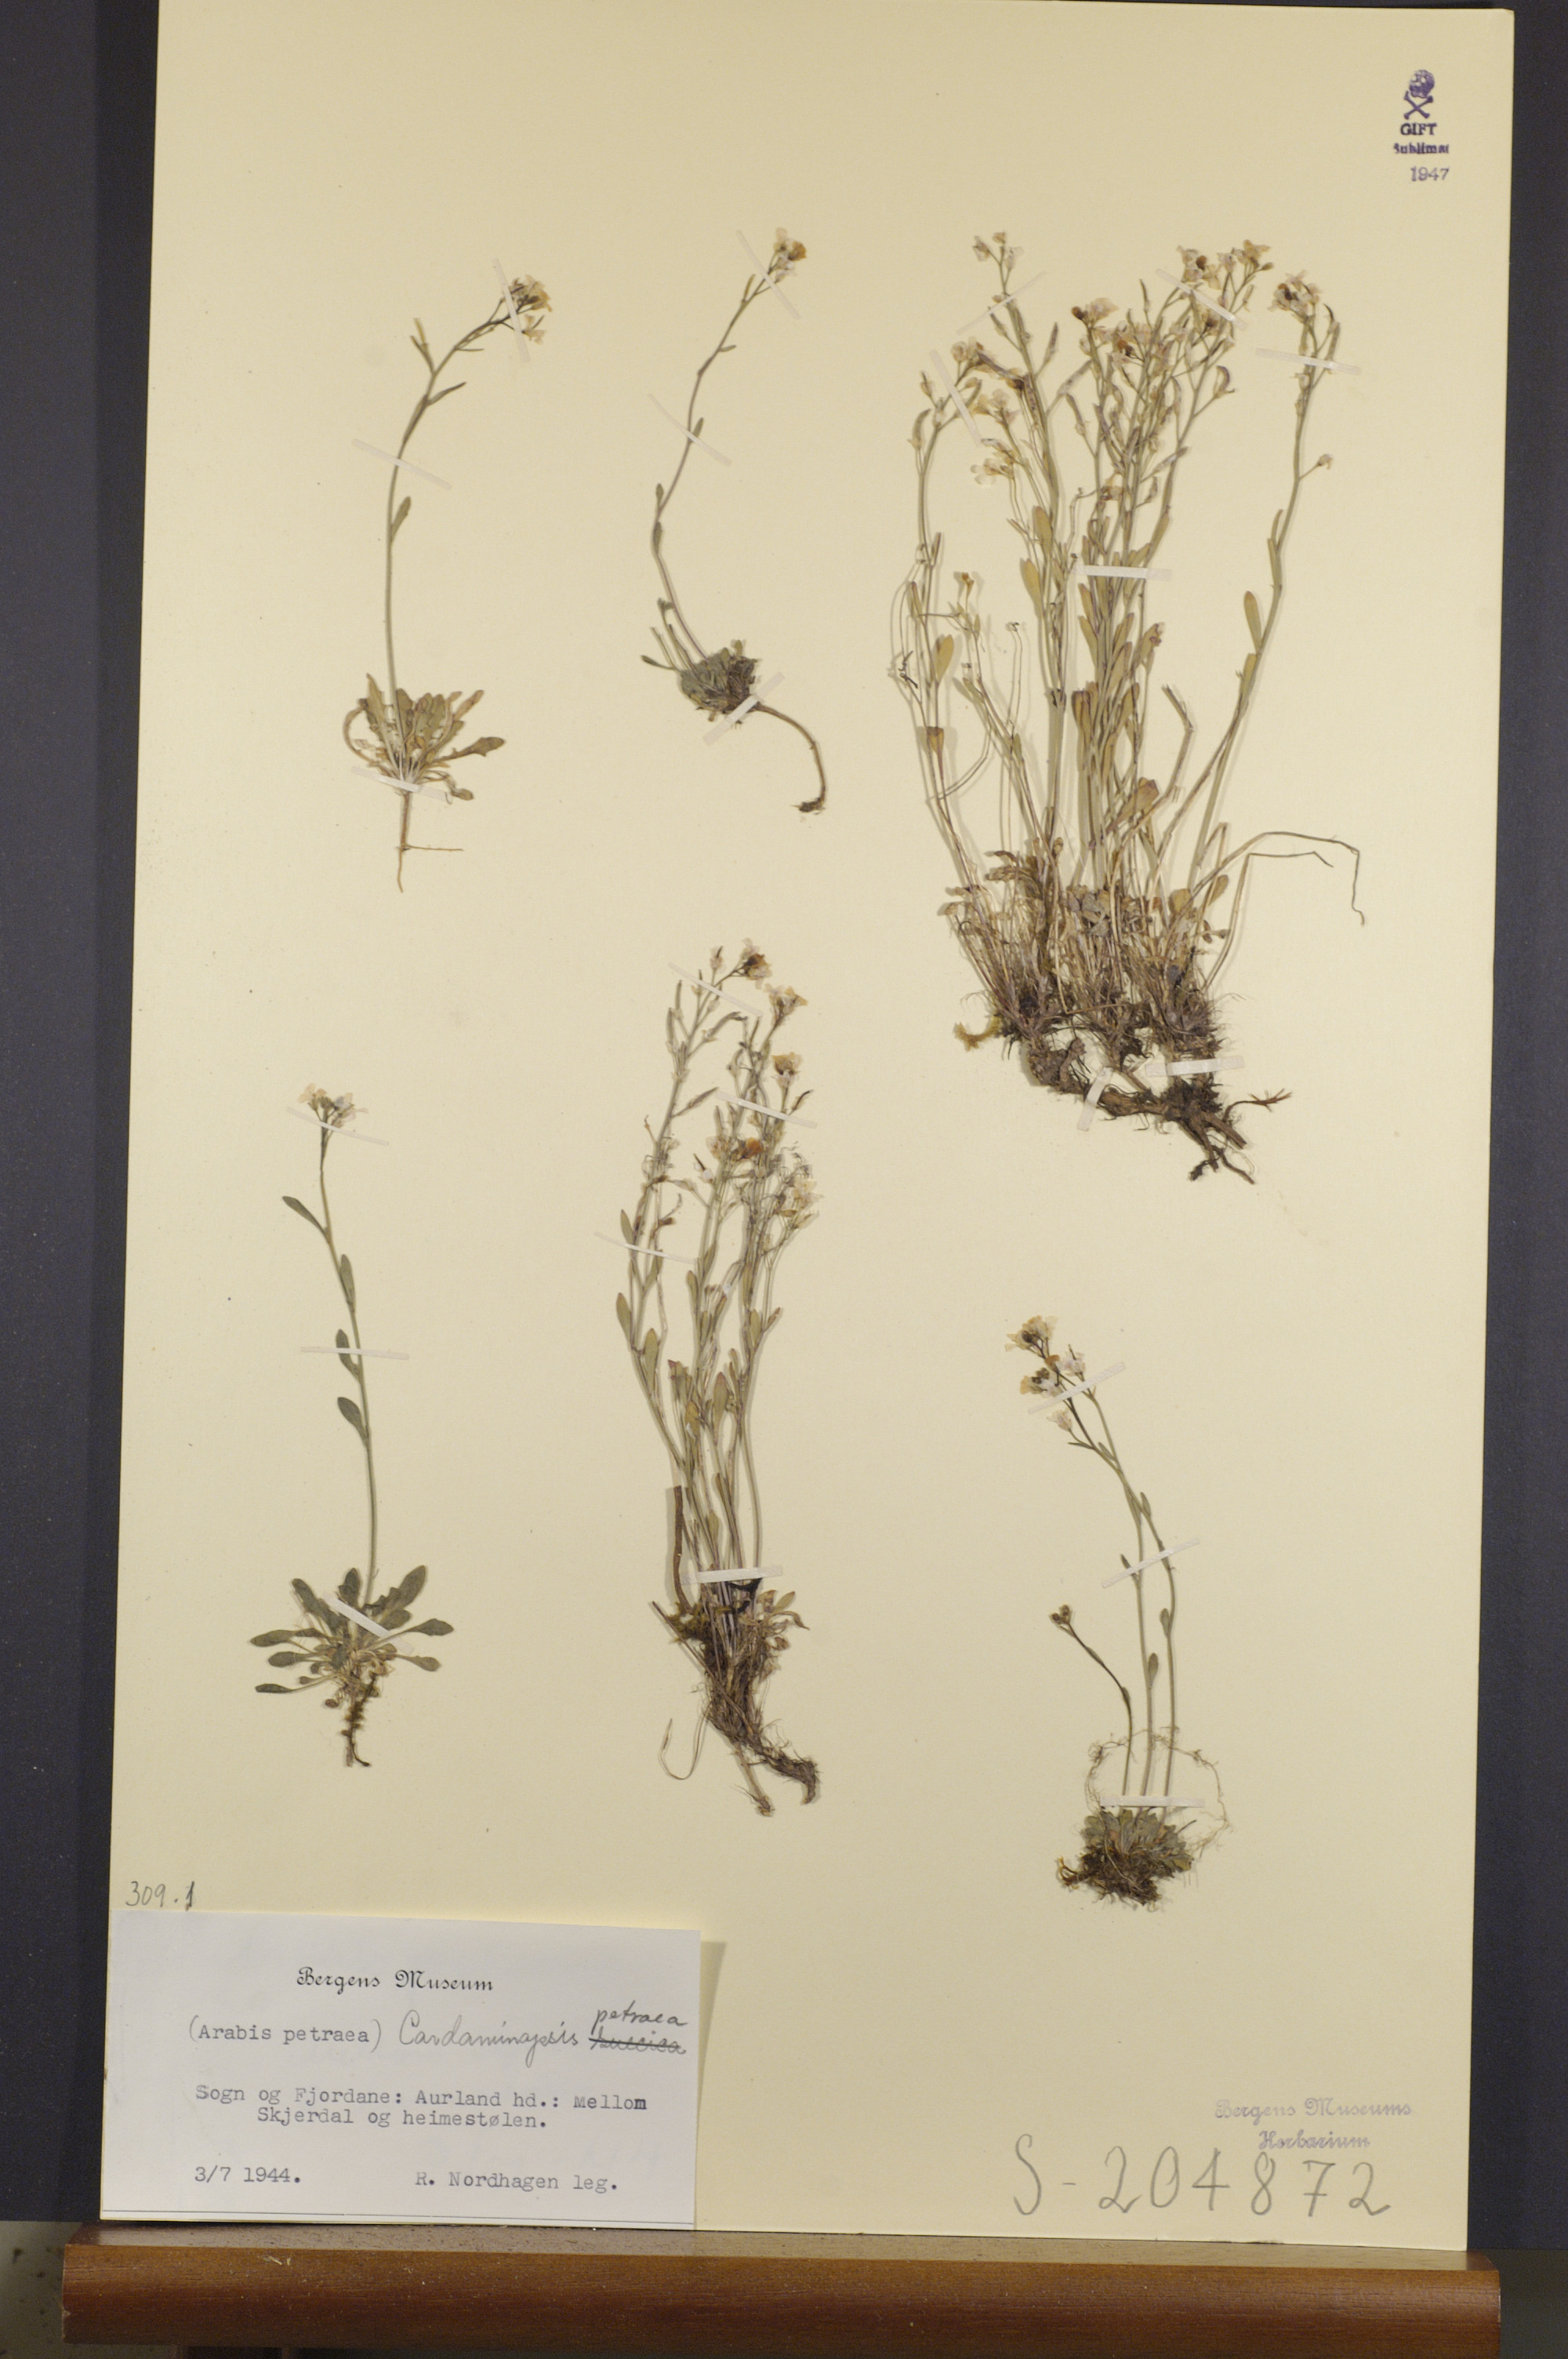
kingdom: Plantae
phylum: Tracheophyta
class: Magnoliopsida
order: Brassicales
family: Brassicaceae
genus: Arabidopsis
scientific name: Arabidopsis petraea
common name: Northern rock-cress
